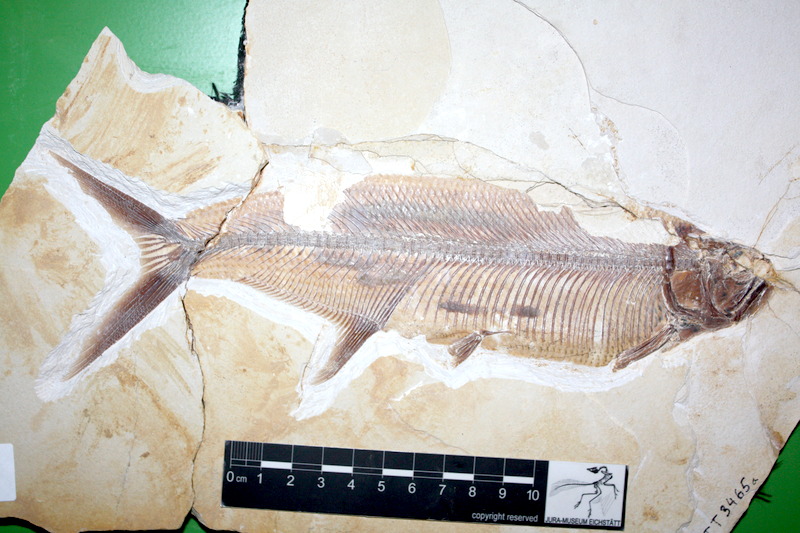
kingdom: Animalia
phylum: Chordata
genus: Thrissops
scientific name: Thrissops subovatus
